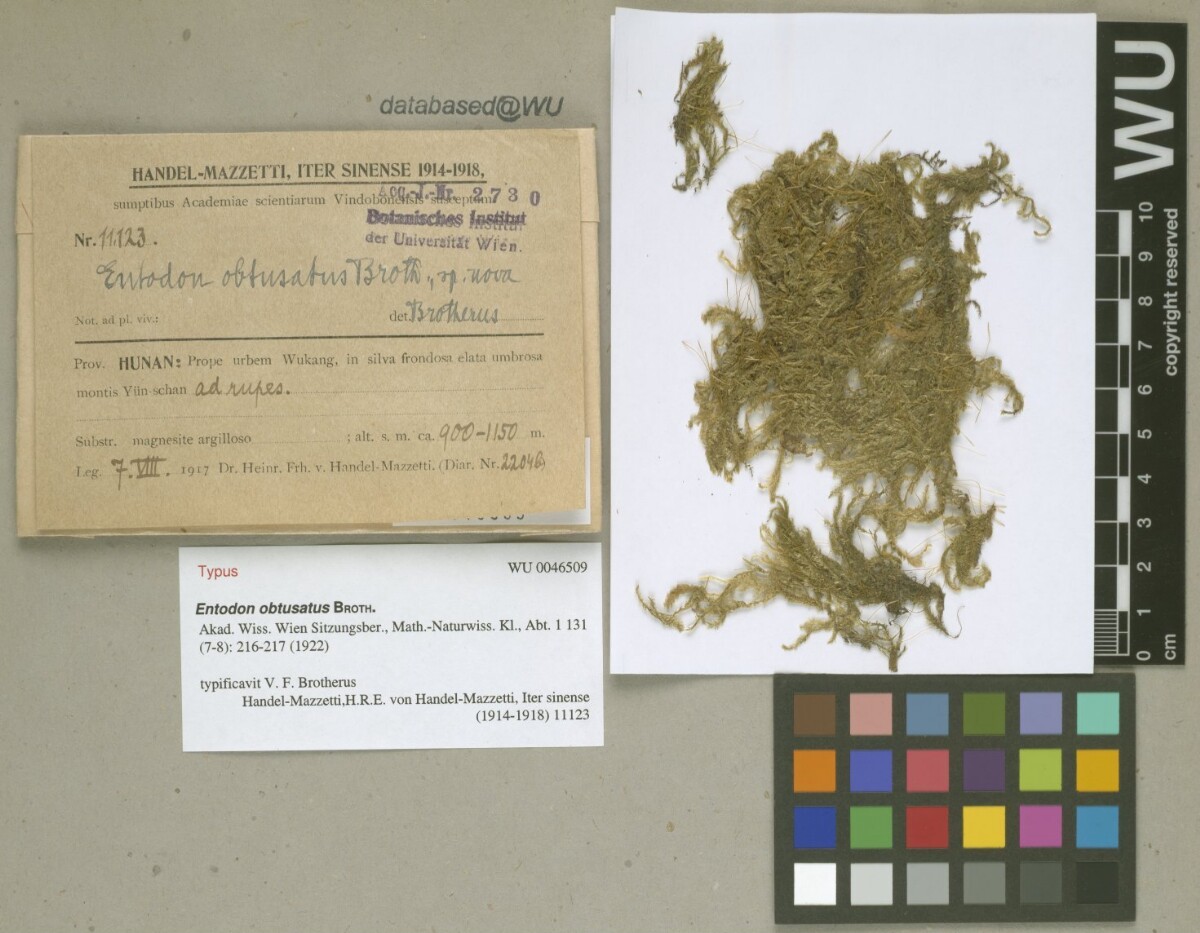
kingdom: Plantae
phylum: Bryophyta
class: Bryopsida
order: Hypnales
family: Entodontaceae
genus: Entodon
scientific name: Entodon isopterygioides
